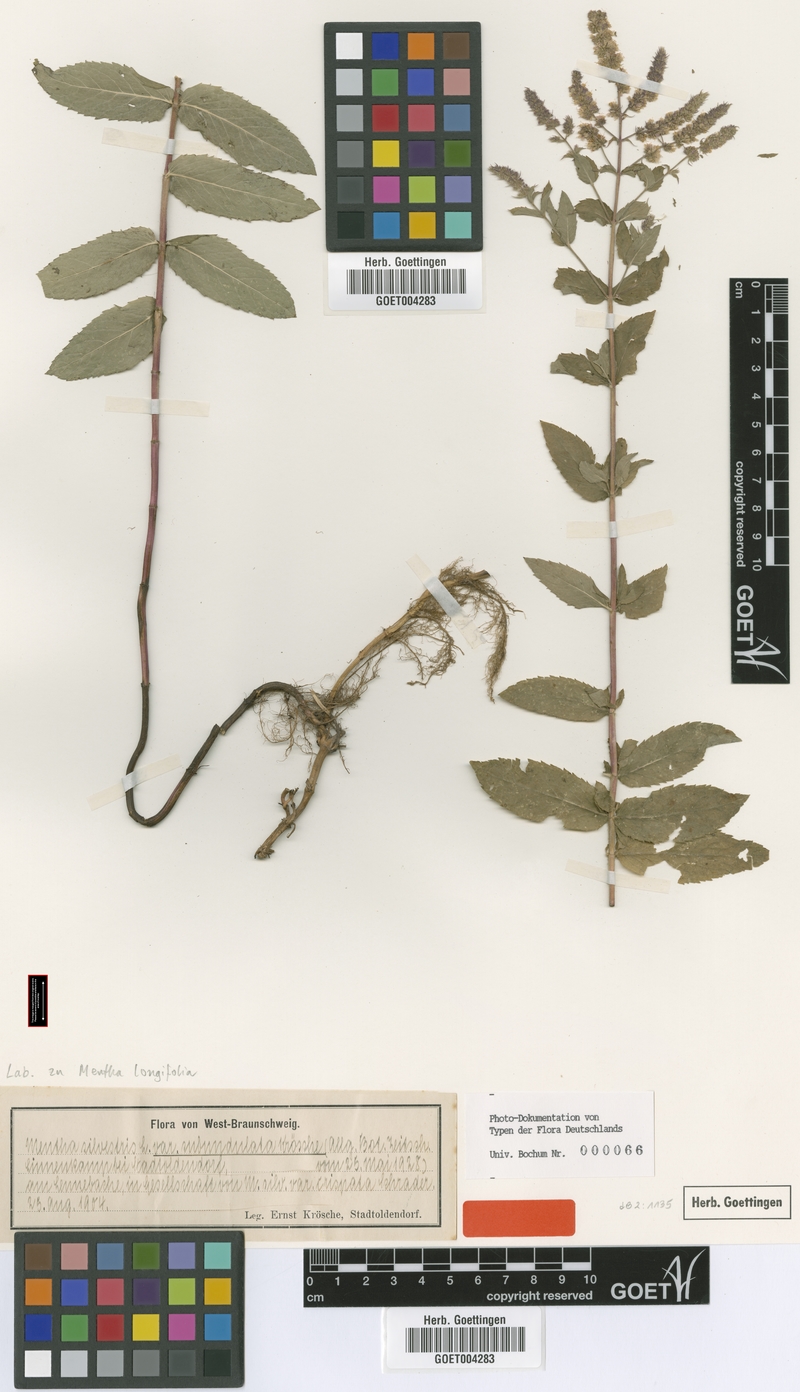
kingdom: Plantae
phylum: Tracheophyta
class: Magnoliopsida
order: Lamiales
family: Lamiaceae
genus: Mentha
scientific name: Mentha longifolia
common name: Horse mint
